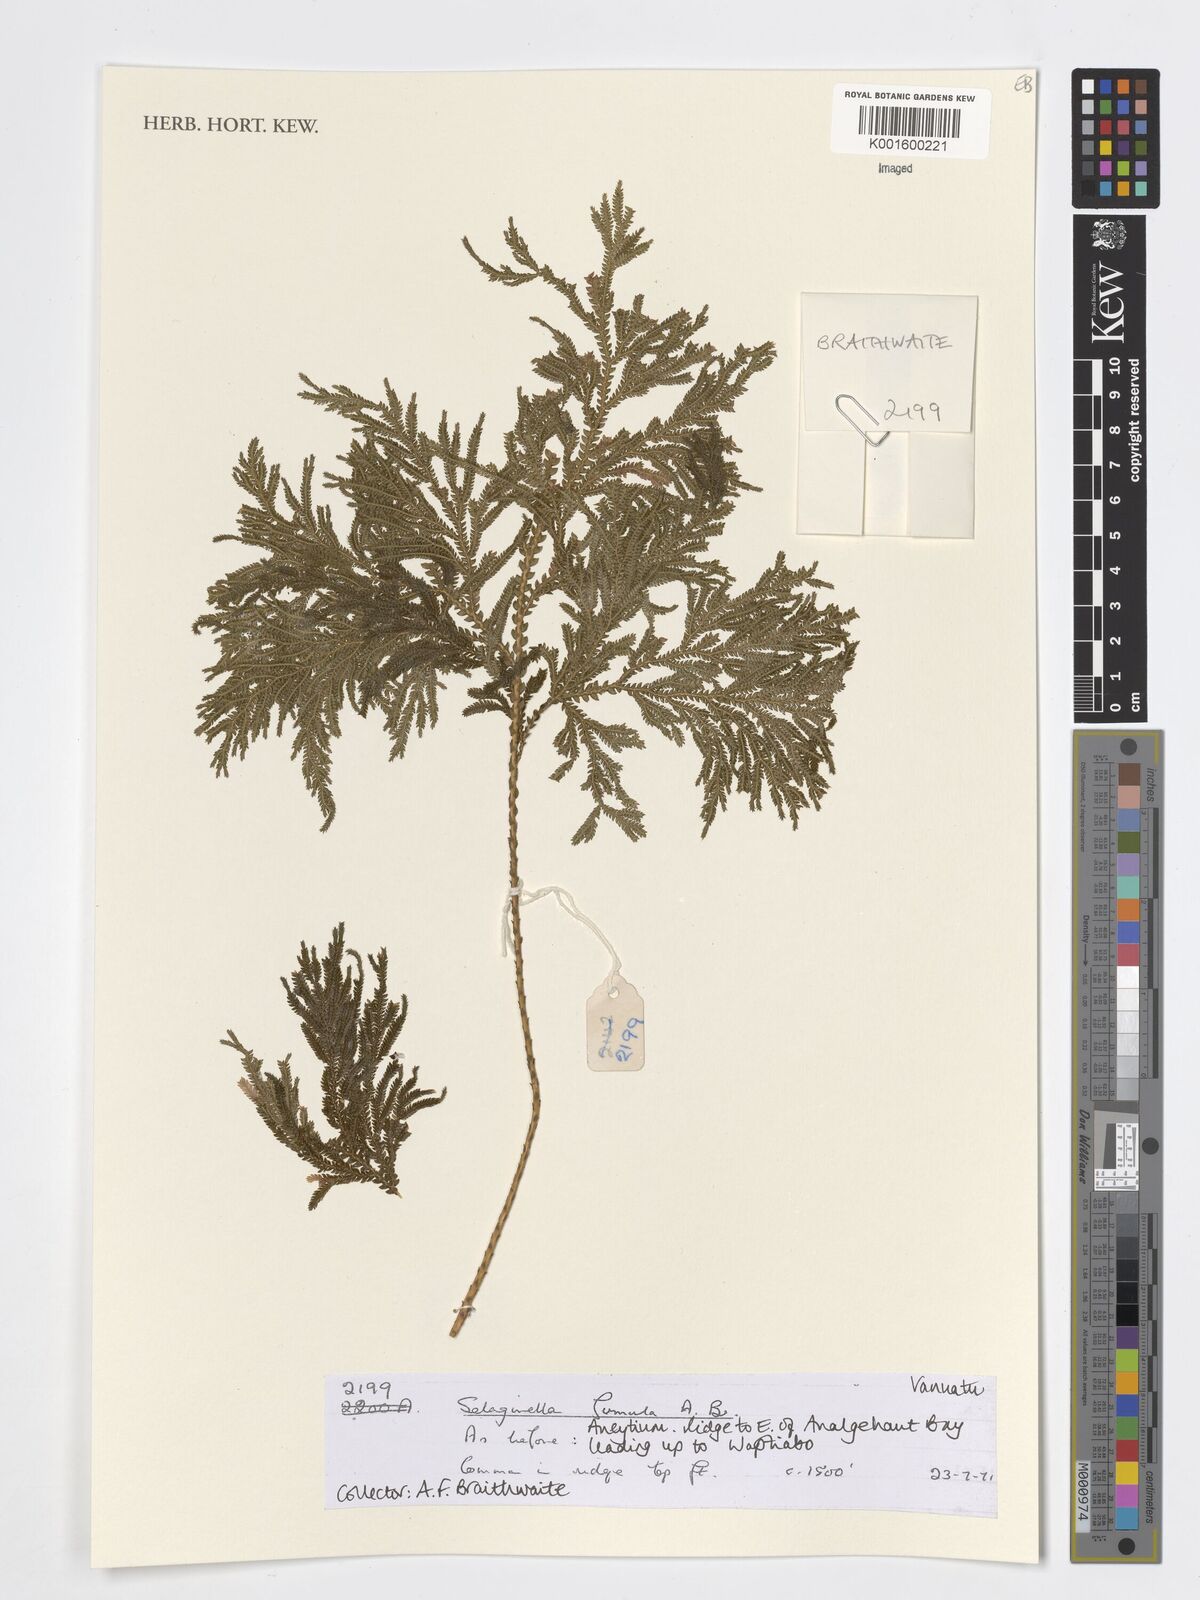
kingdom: Plantae
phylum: Tracheophyta
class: Lycopodiopsida
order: Selaginellales
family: Selaginellaceae
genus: Selaginella
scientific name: Selaginella firmula
